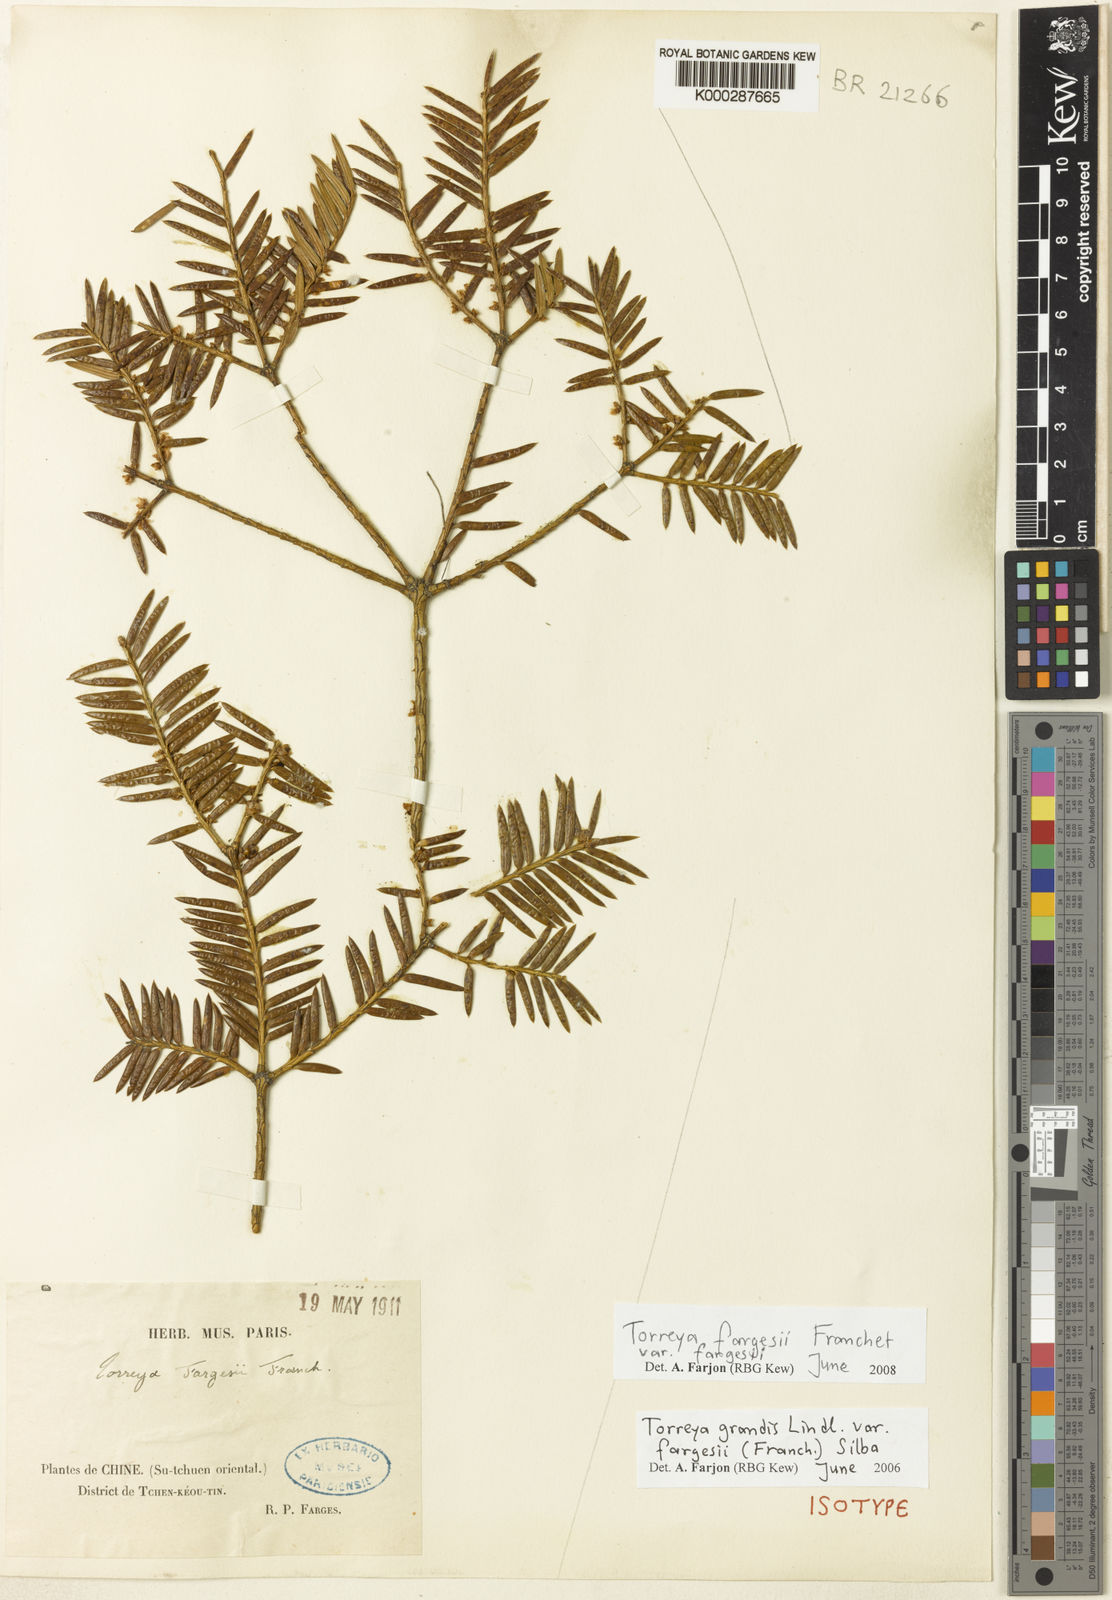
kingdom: Plantae
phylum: Tracheophyta
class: Pinopsida
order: Pinales
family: Taxaceae
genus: Torreya
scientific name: Torreya fargesii
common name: Farges nutmeg tree
